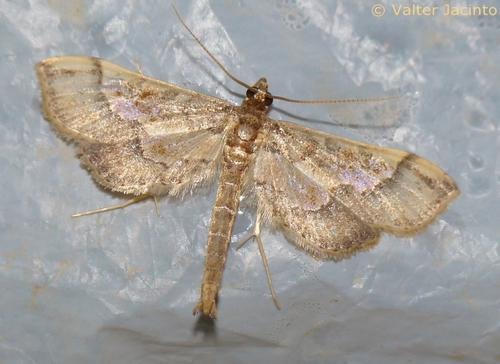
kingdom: Animalia
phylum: Arthropoda
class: Insecta
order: Lepidoptera
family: Crambidae
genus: Hydriris
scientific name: Hydriris ornatalis
